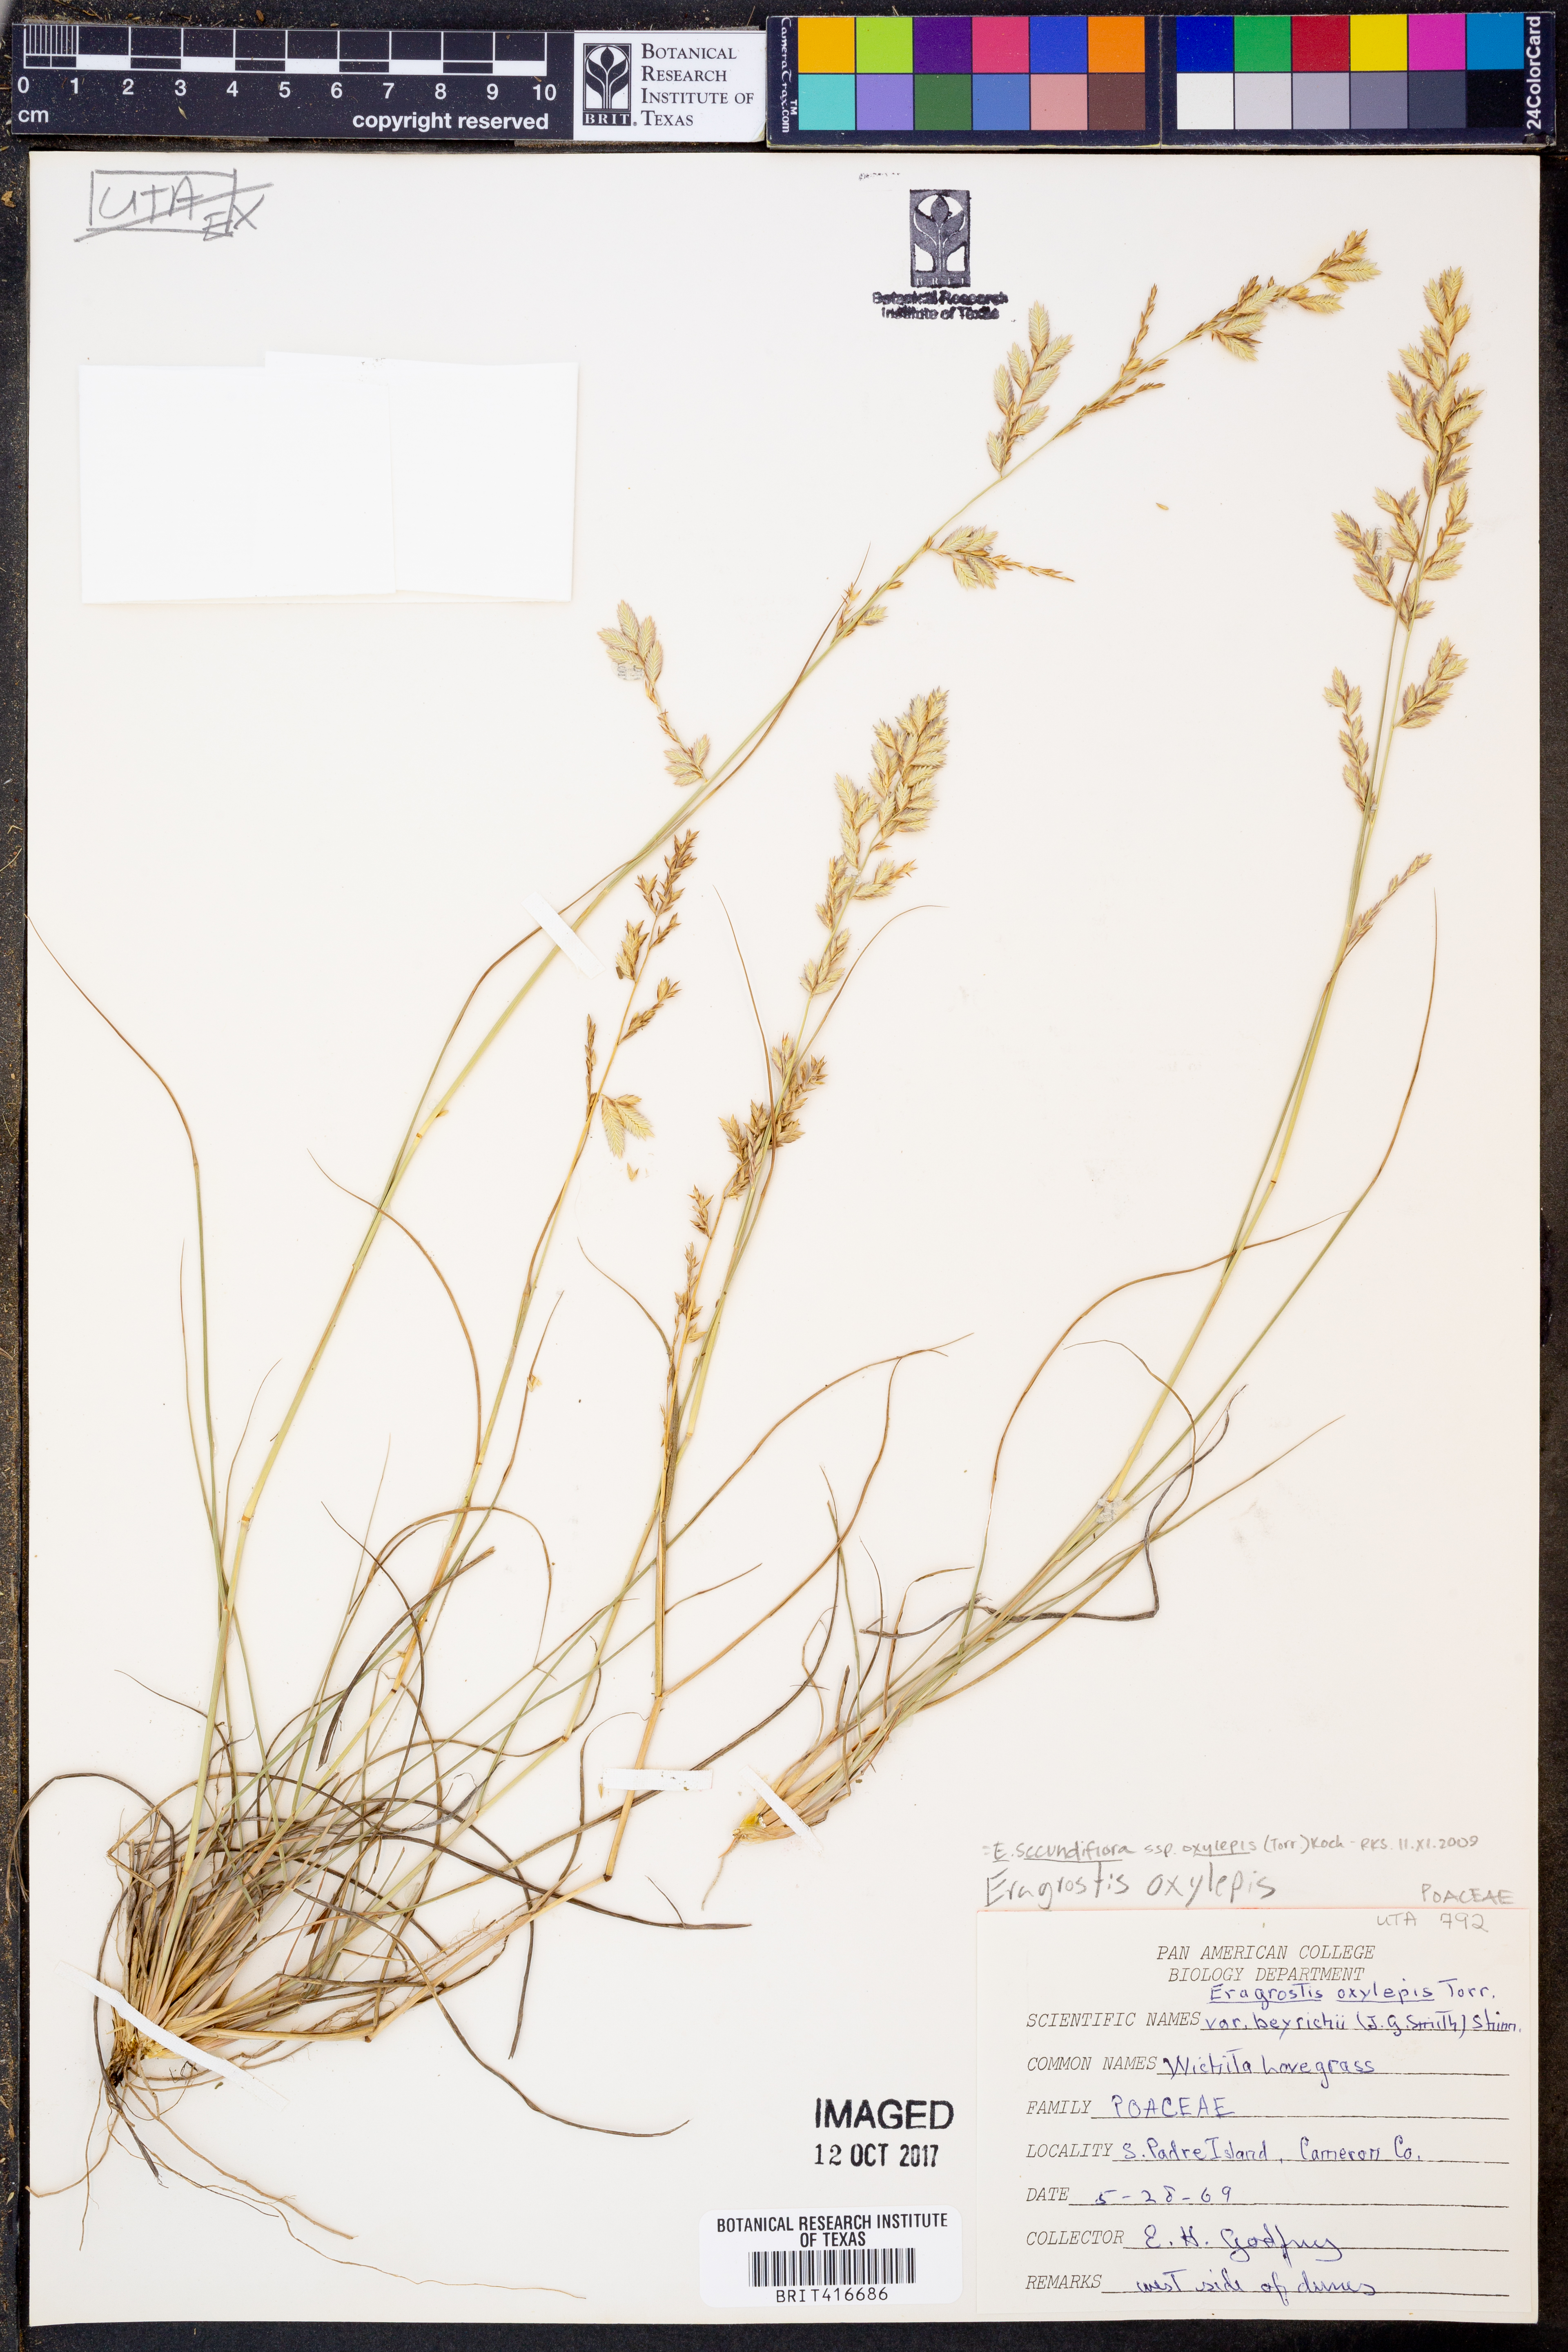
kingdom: Plantae
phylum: Tracheophyta
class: Liliopsida
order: Poales
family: Poaceae
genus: Eragrostis
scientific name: Eragrostis secundiflora
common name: Red love grass
